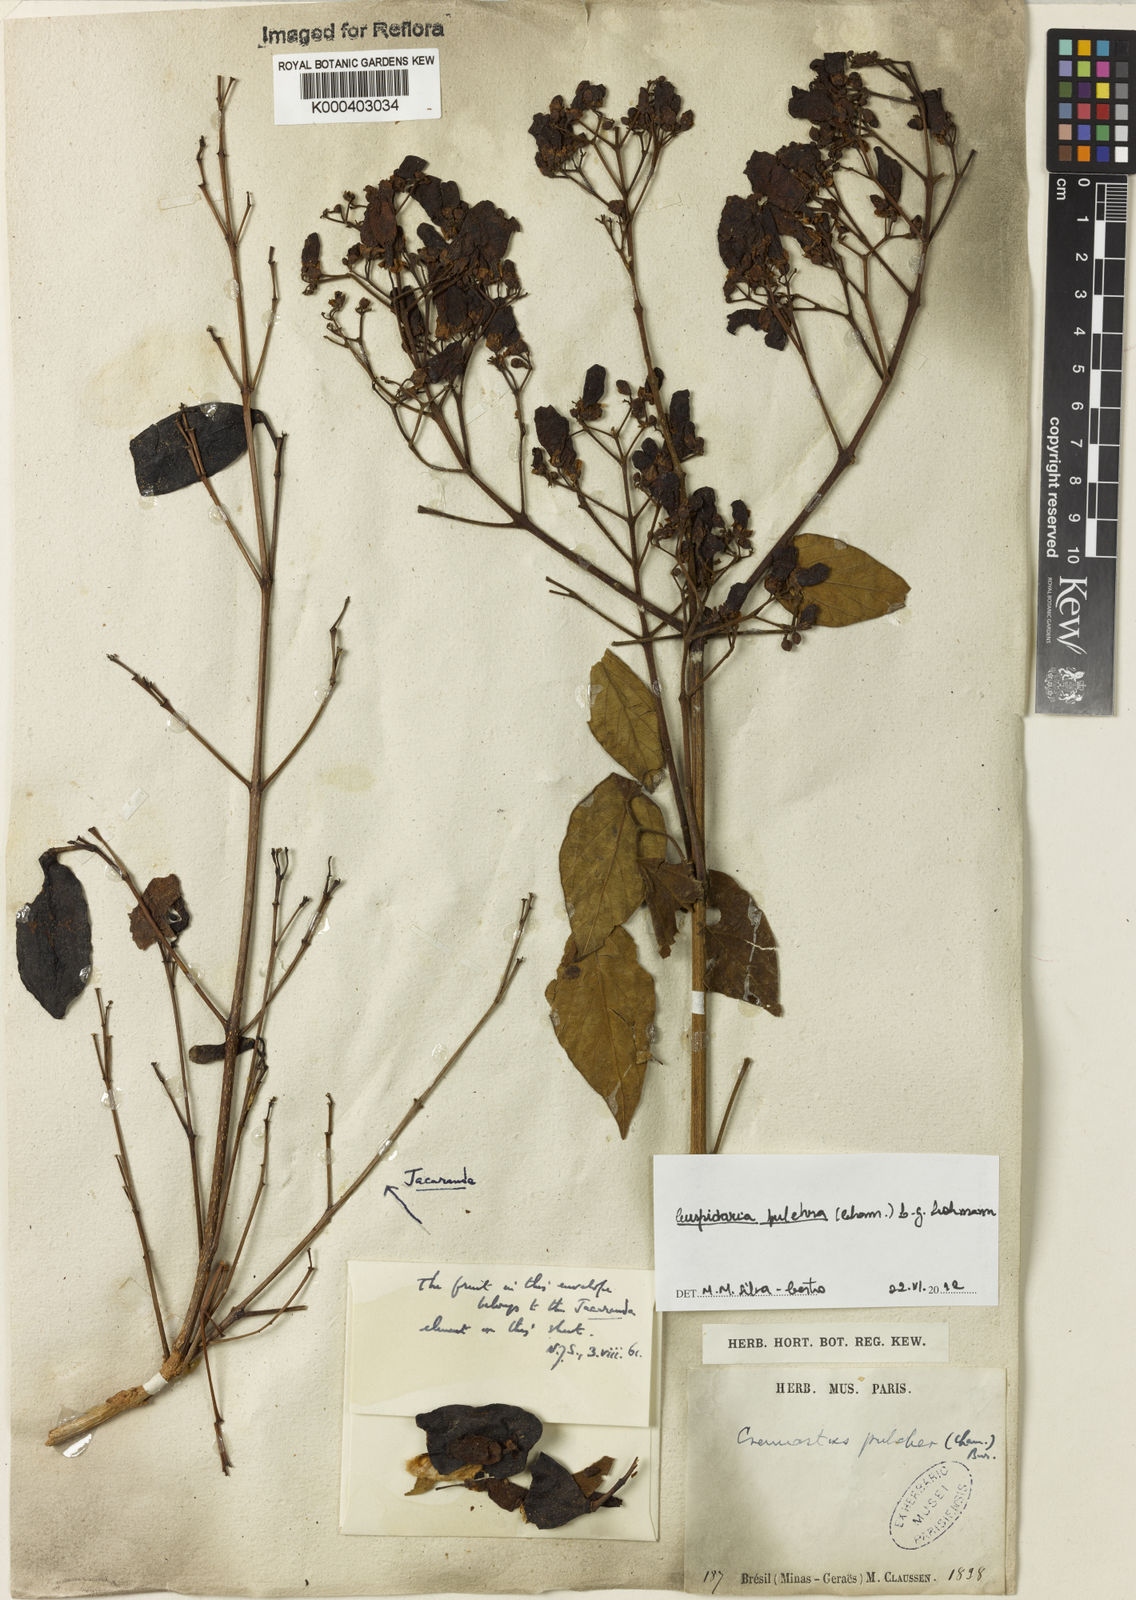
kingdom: Plantae
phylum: Tracheophyta
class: Magnoliopsida
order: Lamiales
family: Bignoniaceae
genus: Cuspidaria
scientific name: Cuspidaria pulchra
